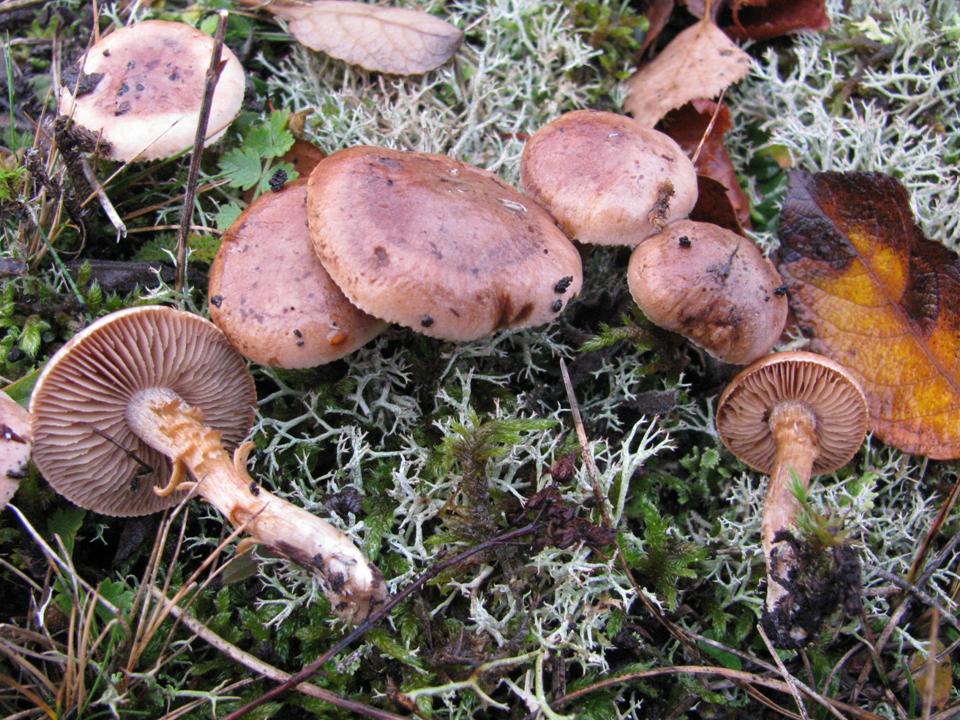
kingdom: Fungi
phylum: Basidiomycota
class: Agaricomycetes
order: Agaricales
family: Hymenogastraceae
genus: Hebeloma
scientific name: Hebeloma vaccinum
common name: ko-tåreblad
